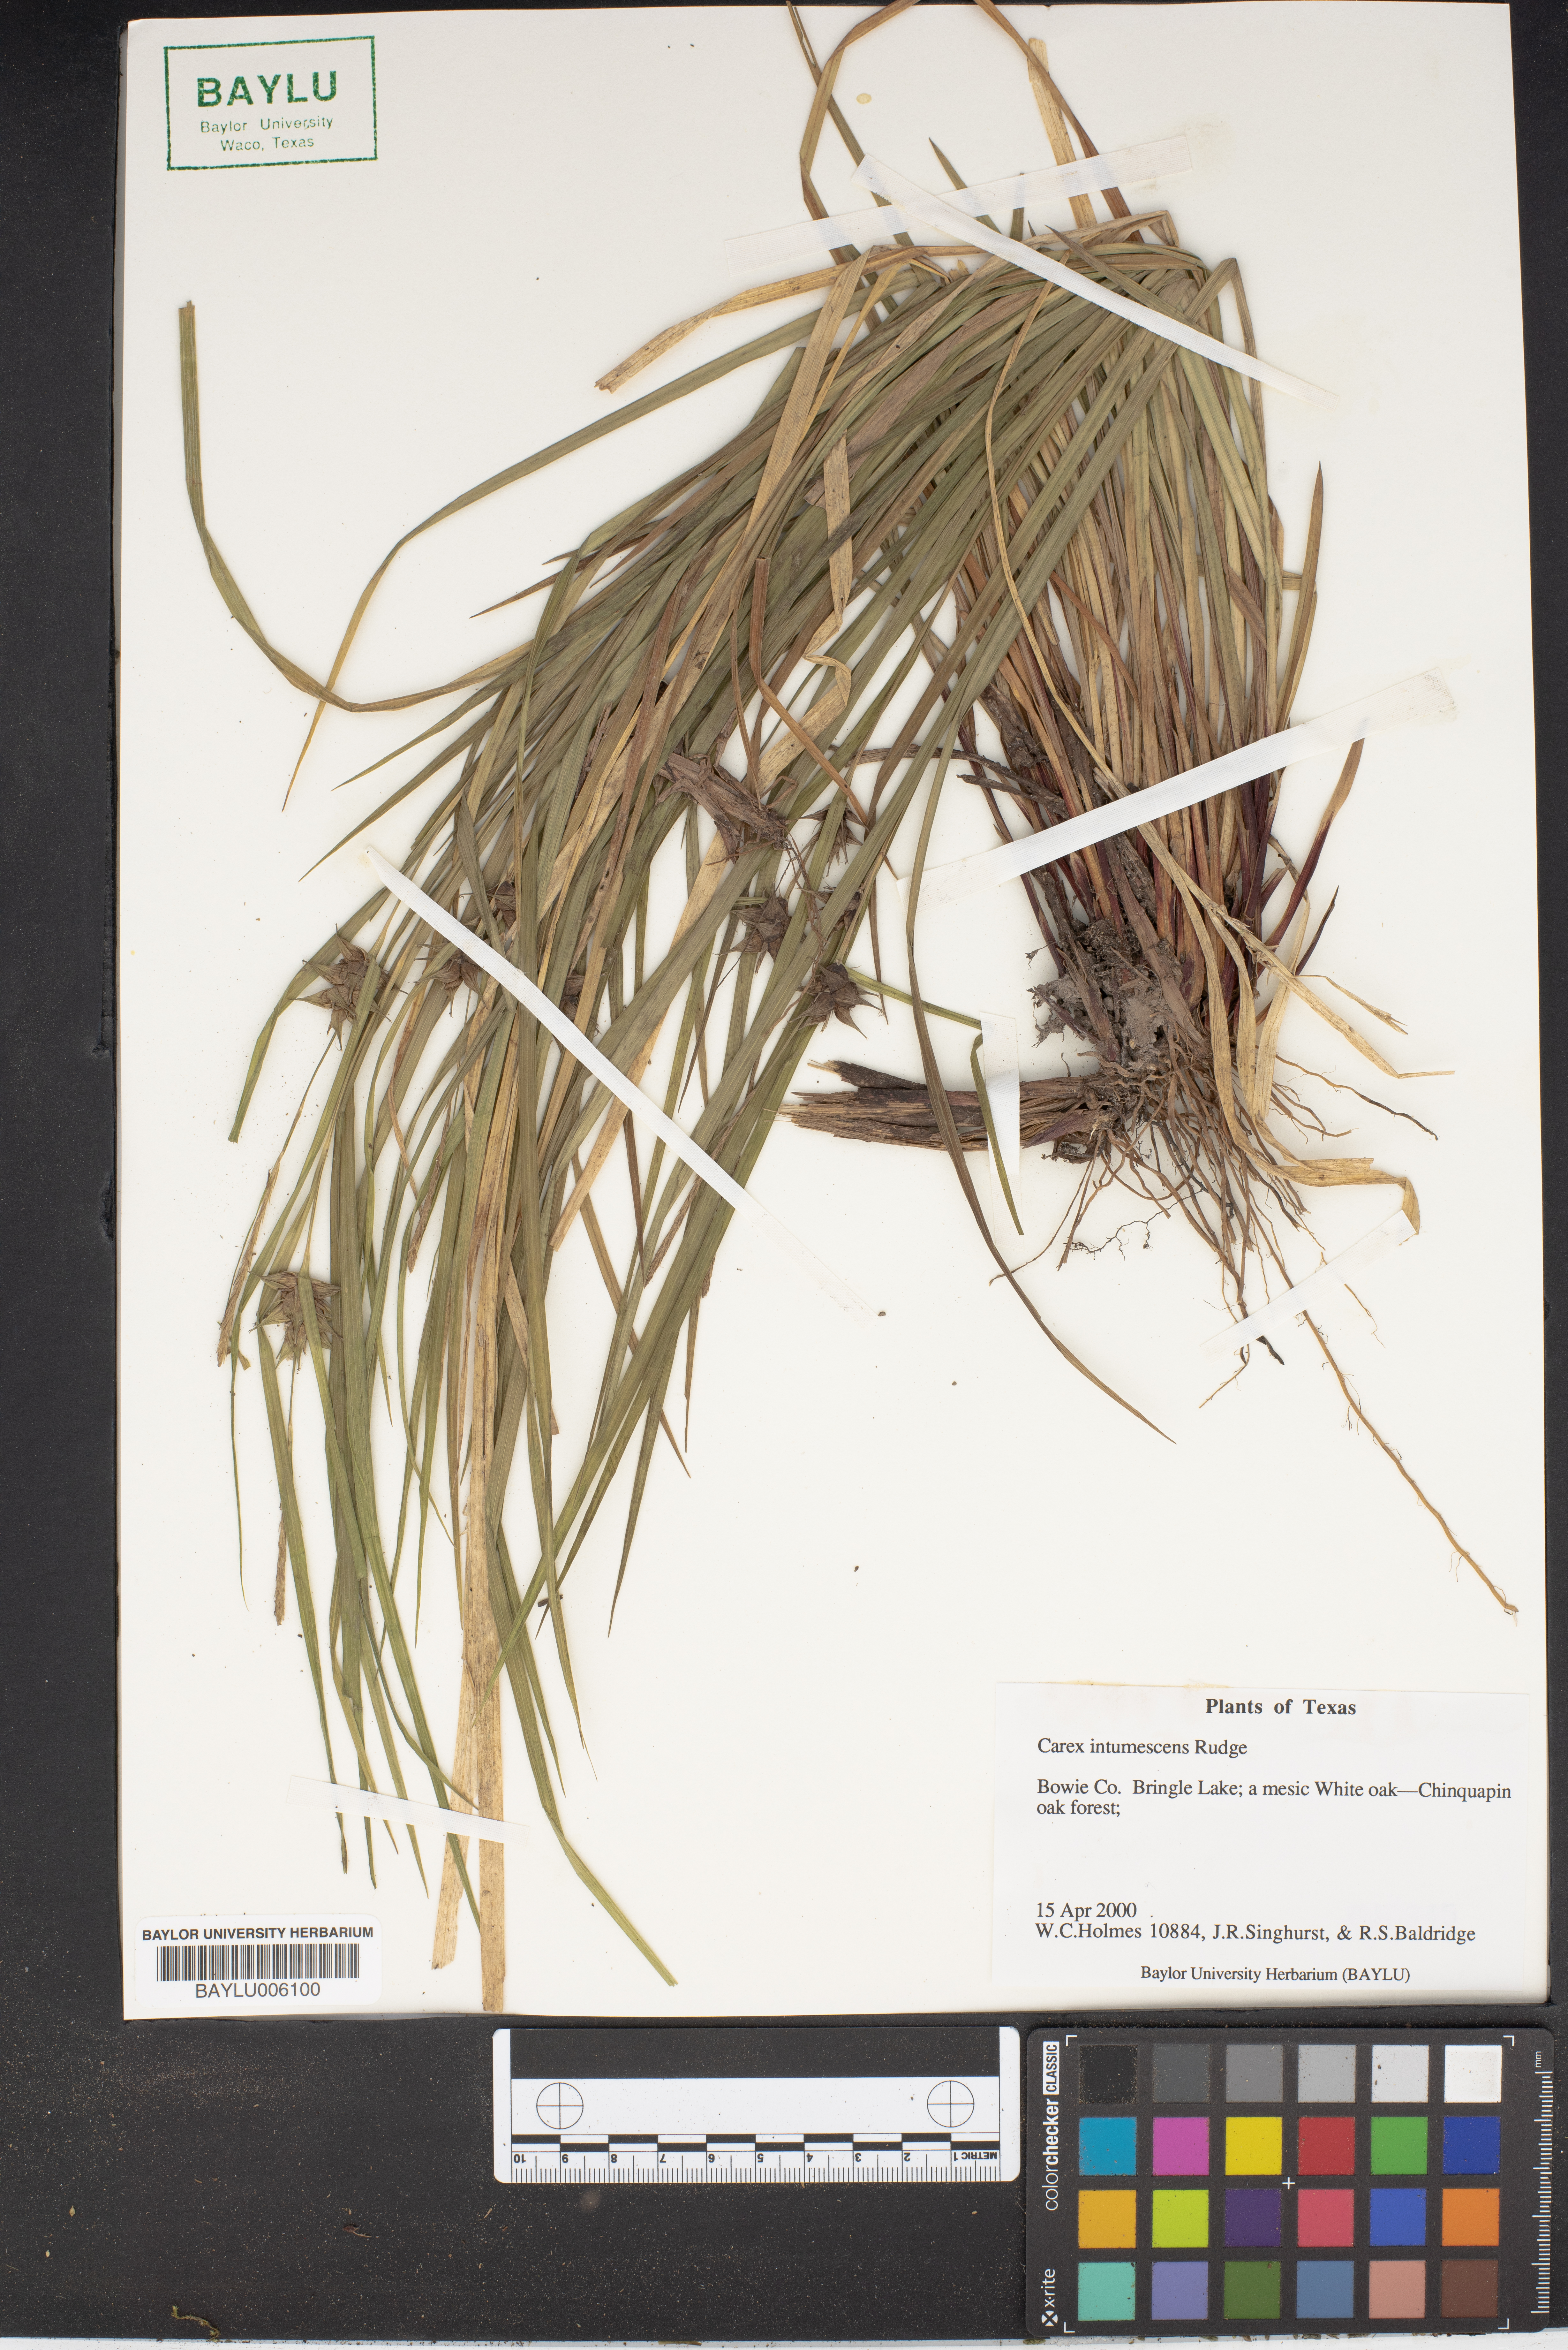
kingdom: Plantae
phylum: Tracheophyta
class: Liliopsida
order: Poales
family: Cyperaceae
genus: Carex
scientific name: Carex intumescens
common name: Greater bladder sedge
